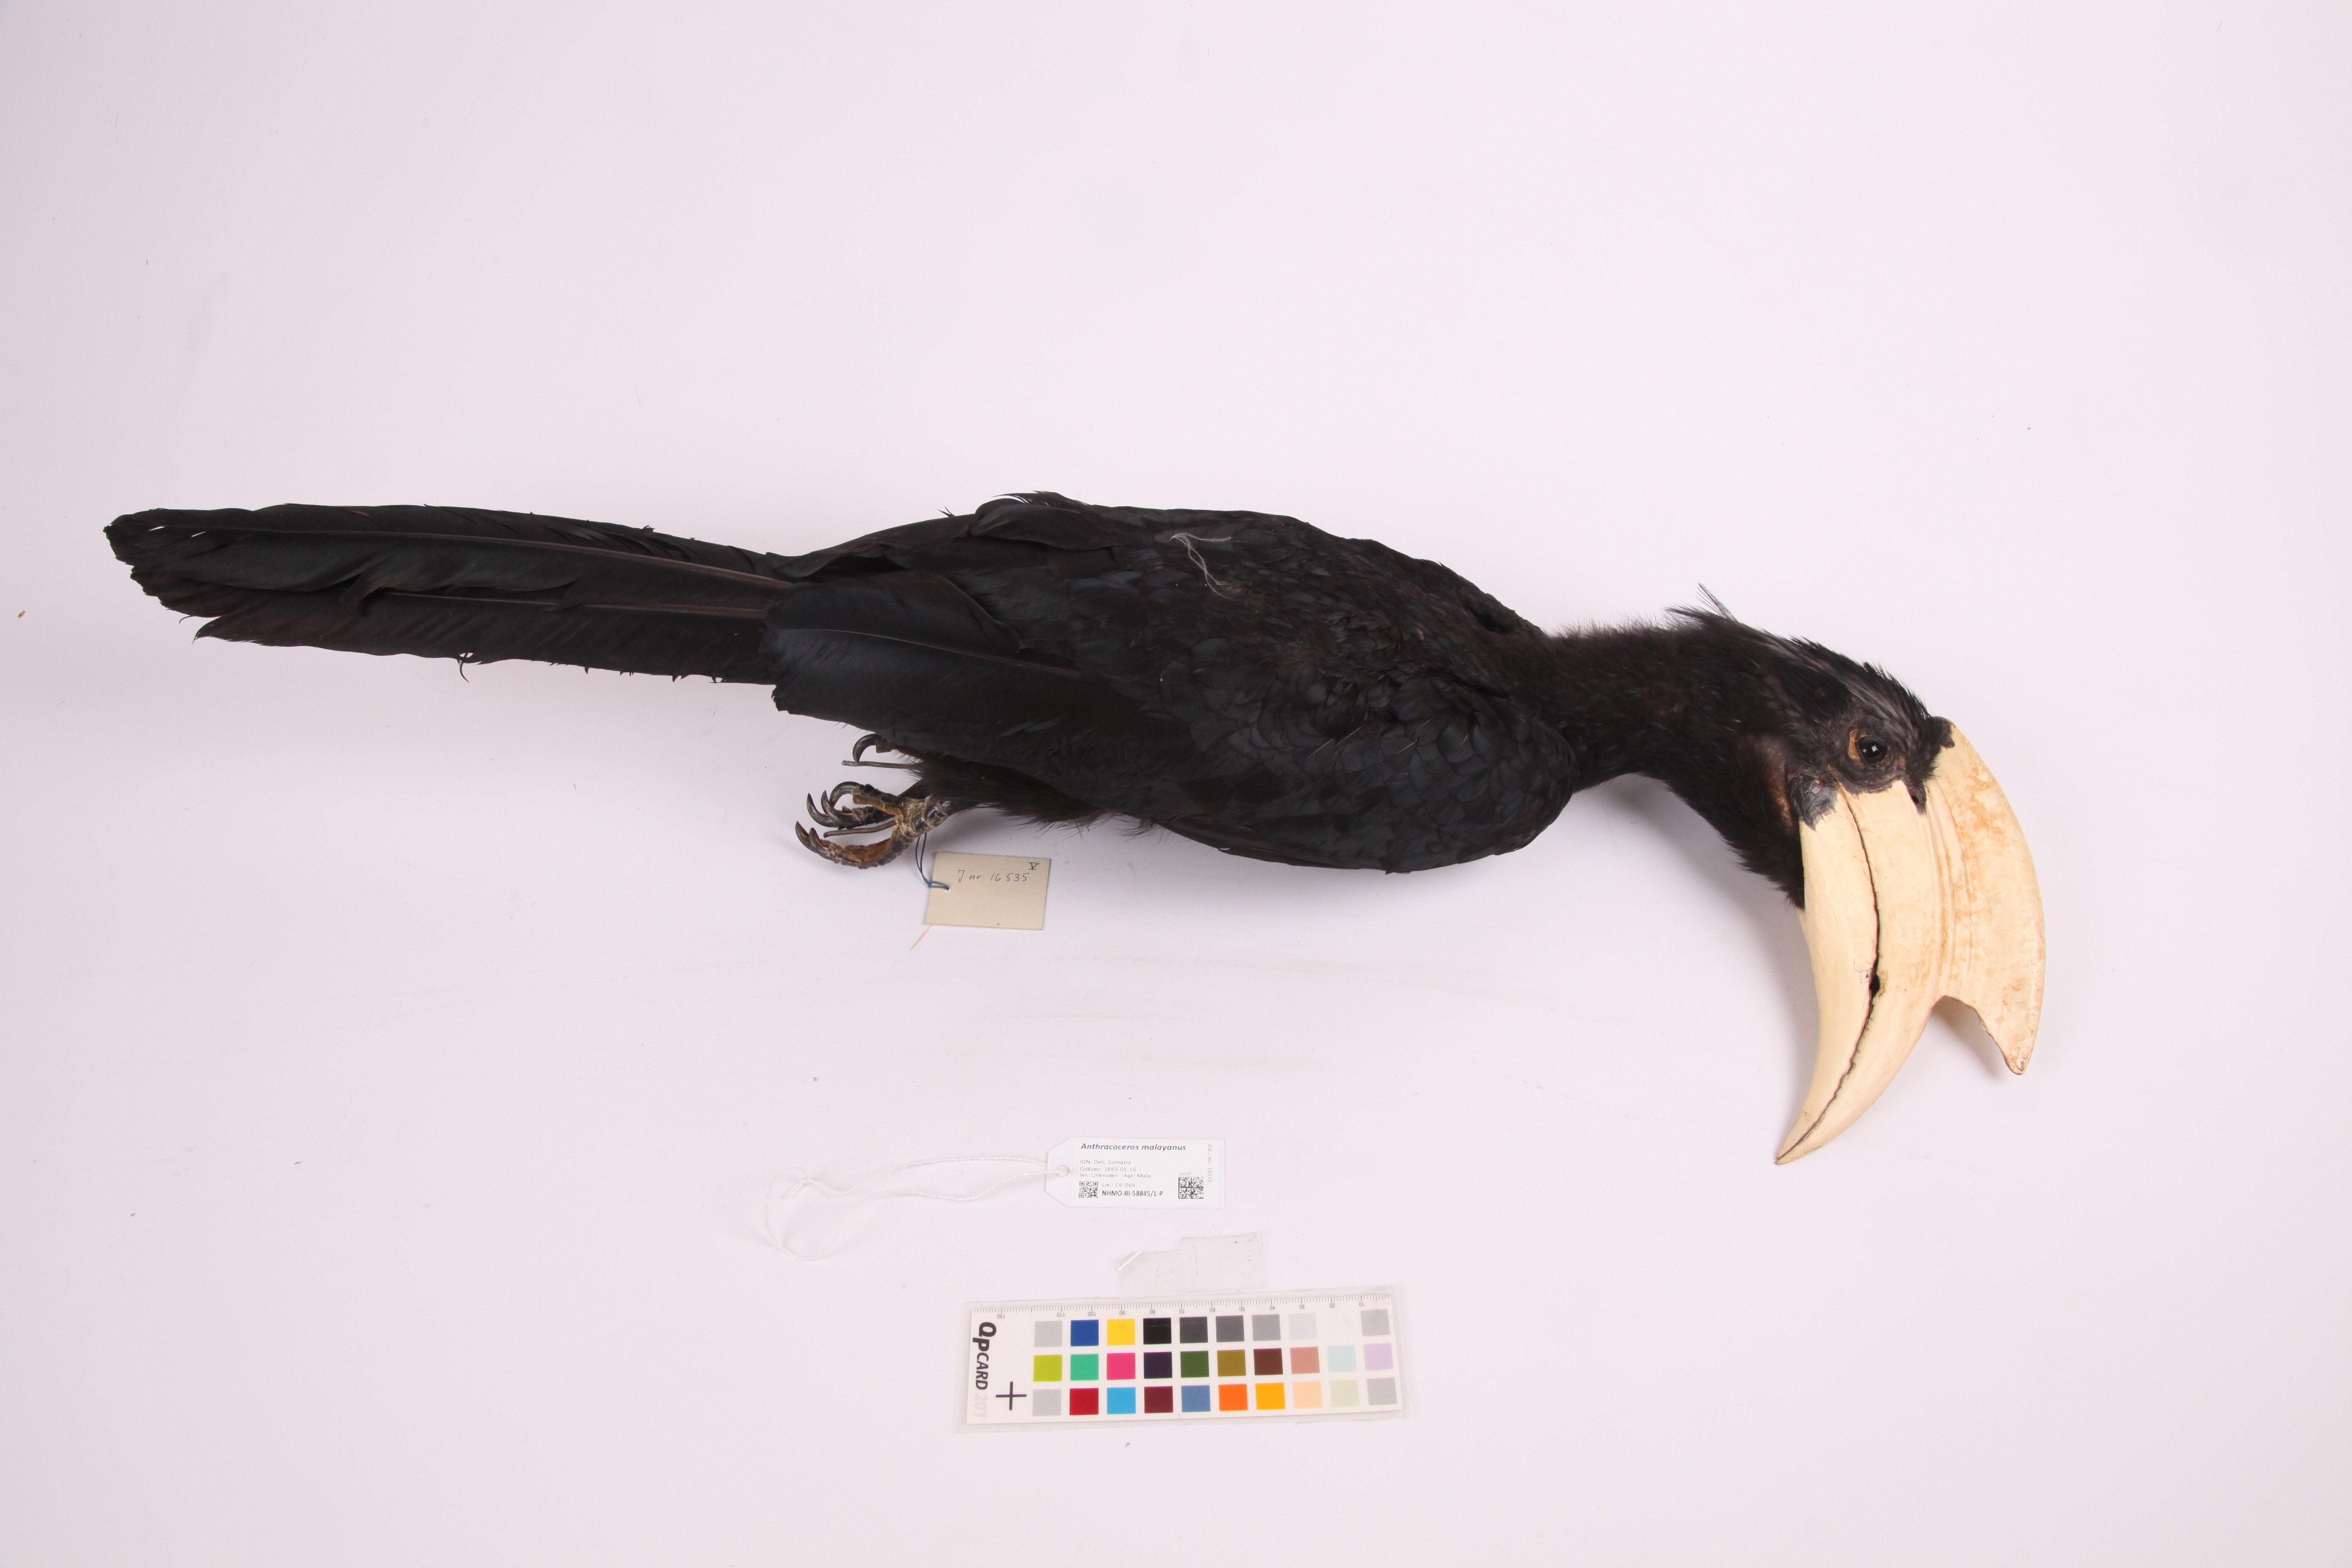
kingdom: Animalia
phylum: Chordata
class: Aves
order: Bucerotiformes
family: Bucerotidae
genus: Anthracoceros
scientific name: Anthracoceros malayanus
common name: Black hornbill
